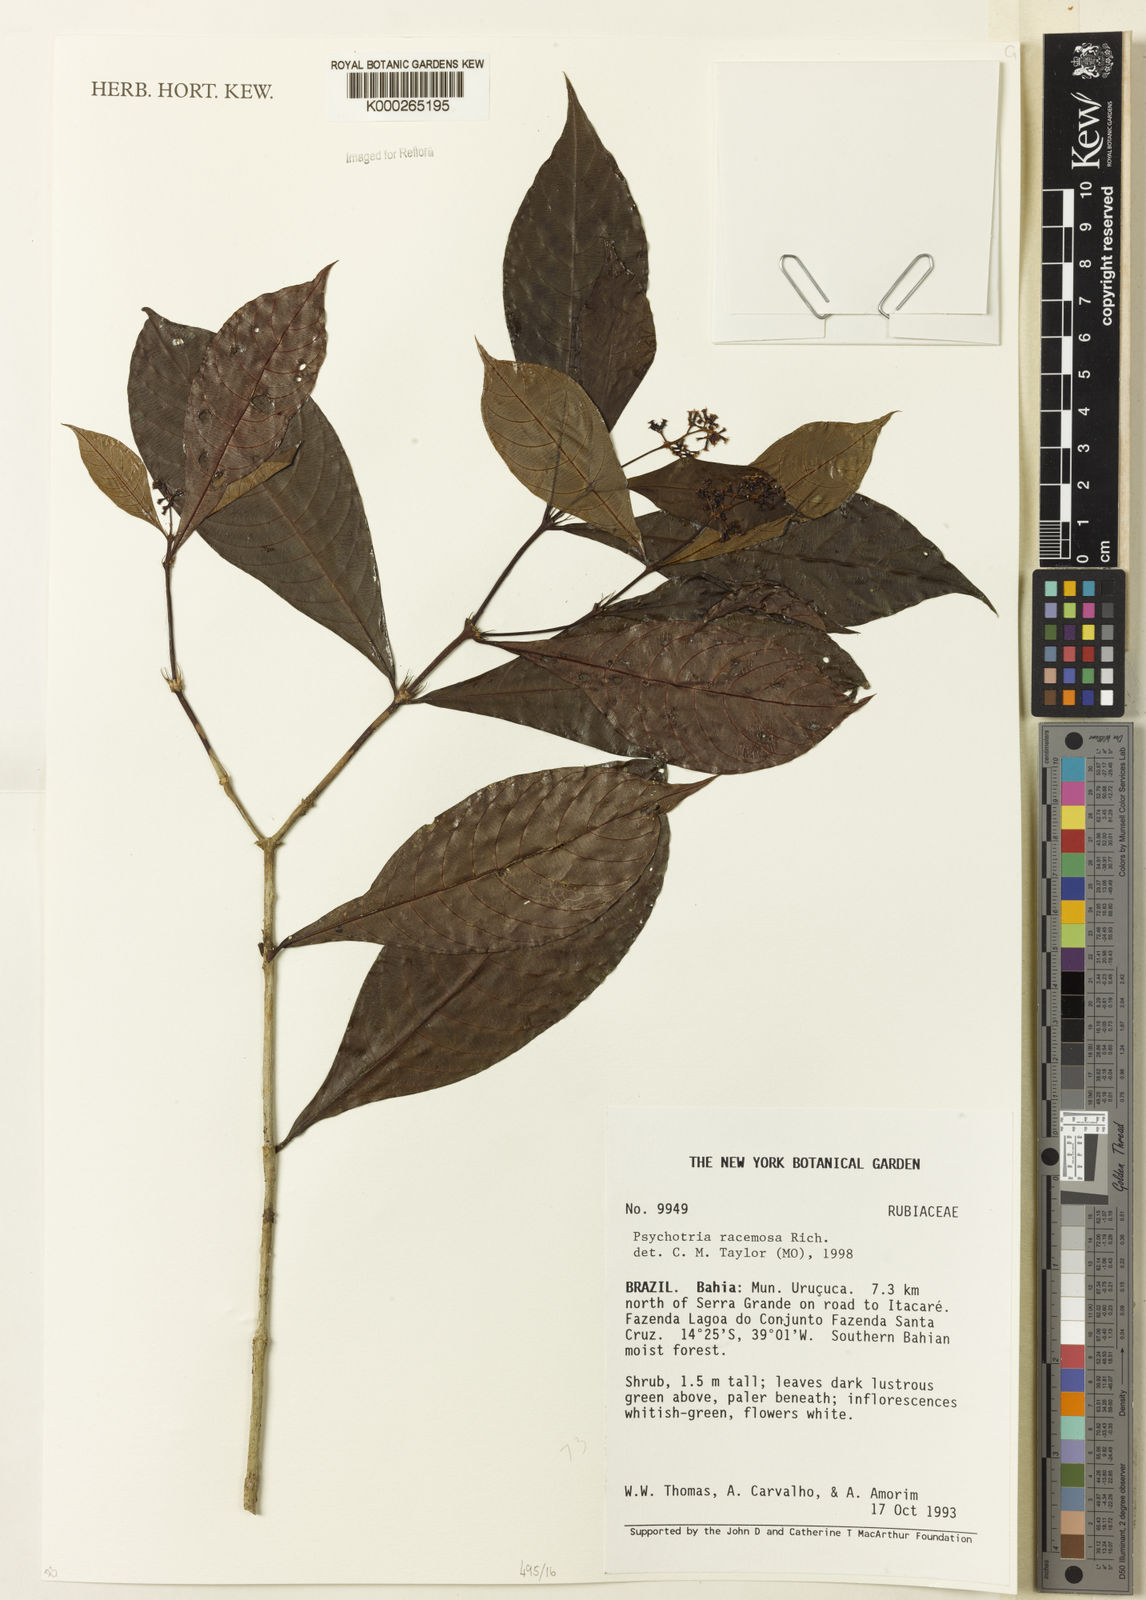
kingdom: Plantae
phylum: Tracheophyta
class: Magnoliopsida
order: Gentianales
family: Rubiaceae
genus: Palicourea
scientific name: Palicourea racemosa
